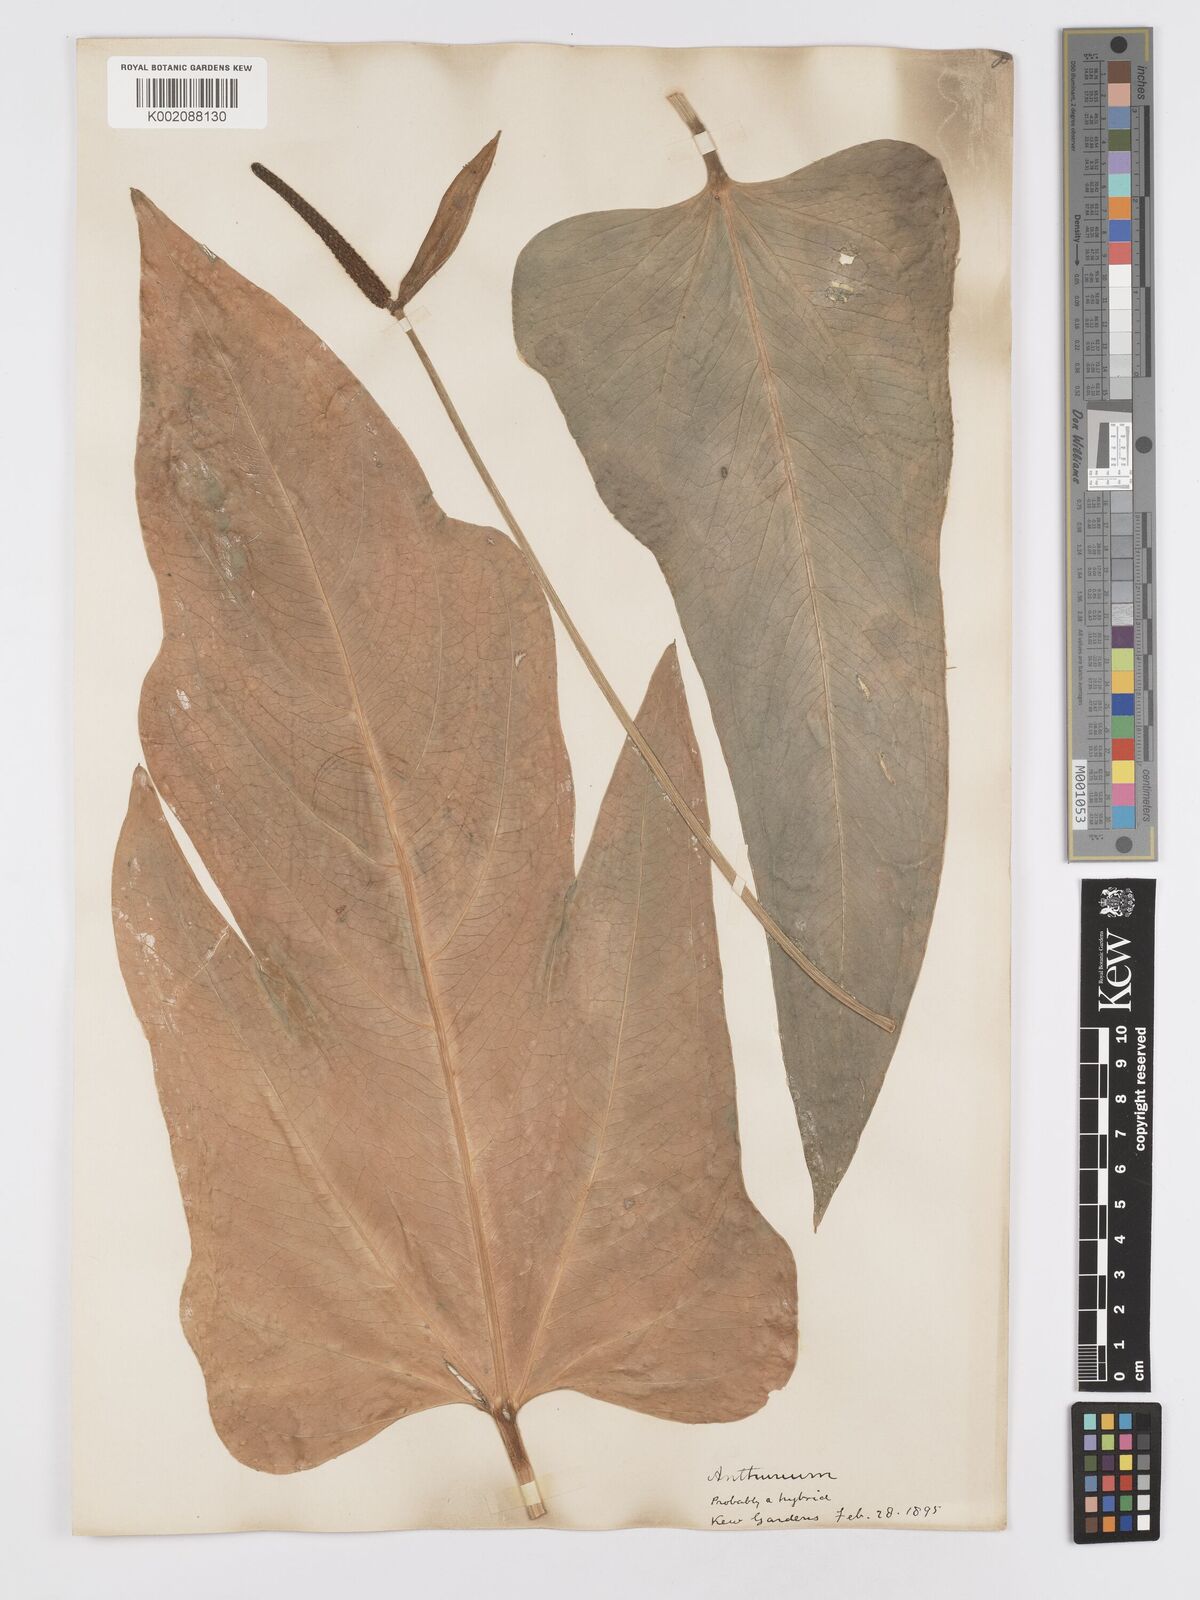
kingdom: Plantae
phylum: Tracheophyta
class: Liliopsida
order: Alismatales
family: Araceae
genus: Anthurium
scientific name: Anthurium
